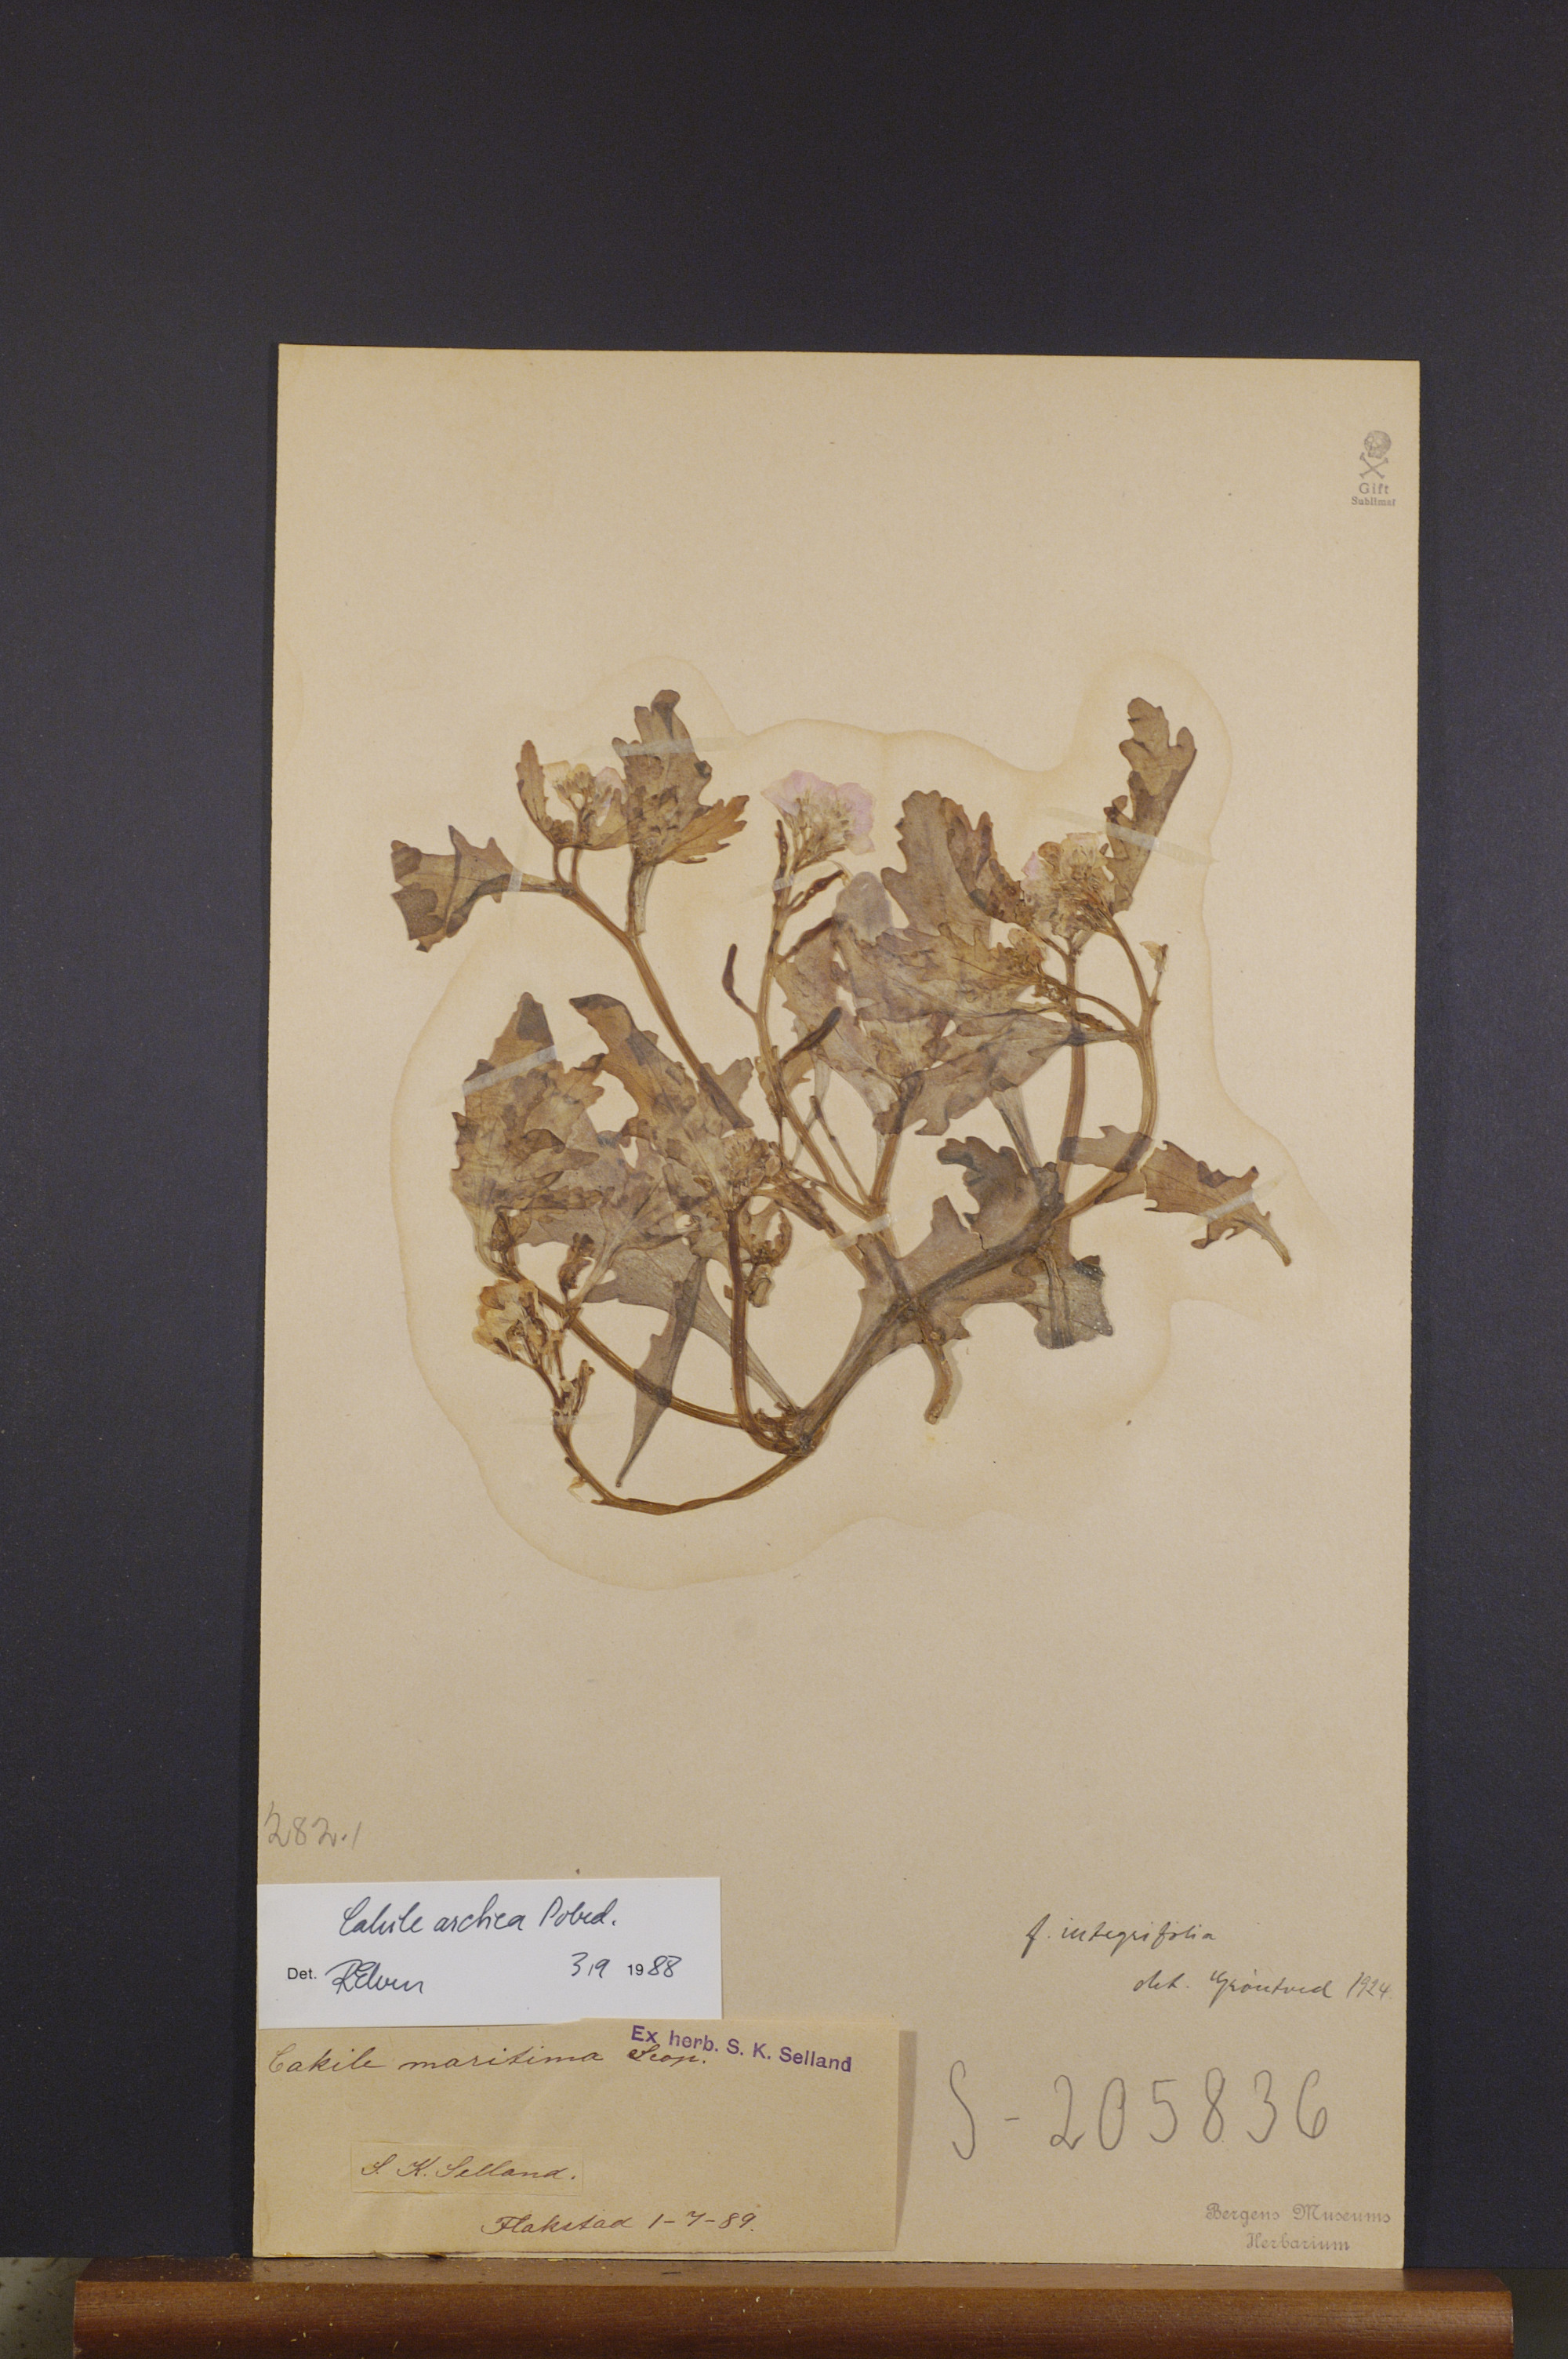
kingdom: Plantae
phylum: Tracheophyta
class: Magnoliopsida
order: Brassicales
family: Brassicaceae
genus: Cakile
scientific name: Cakile arctica
